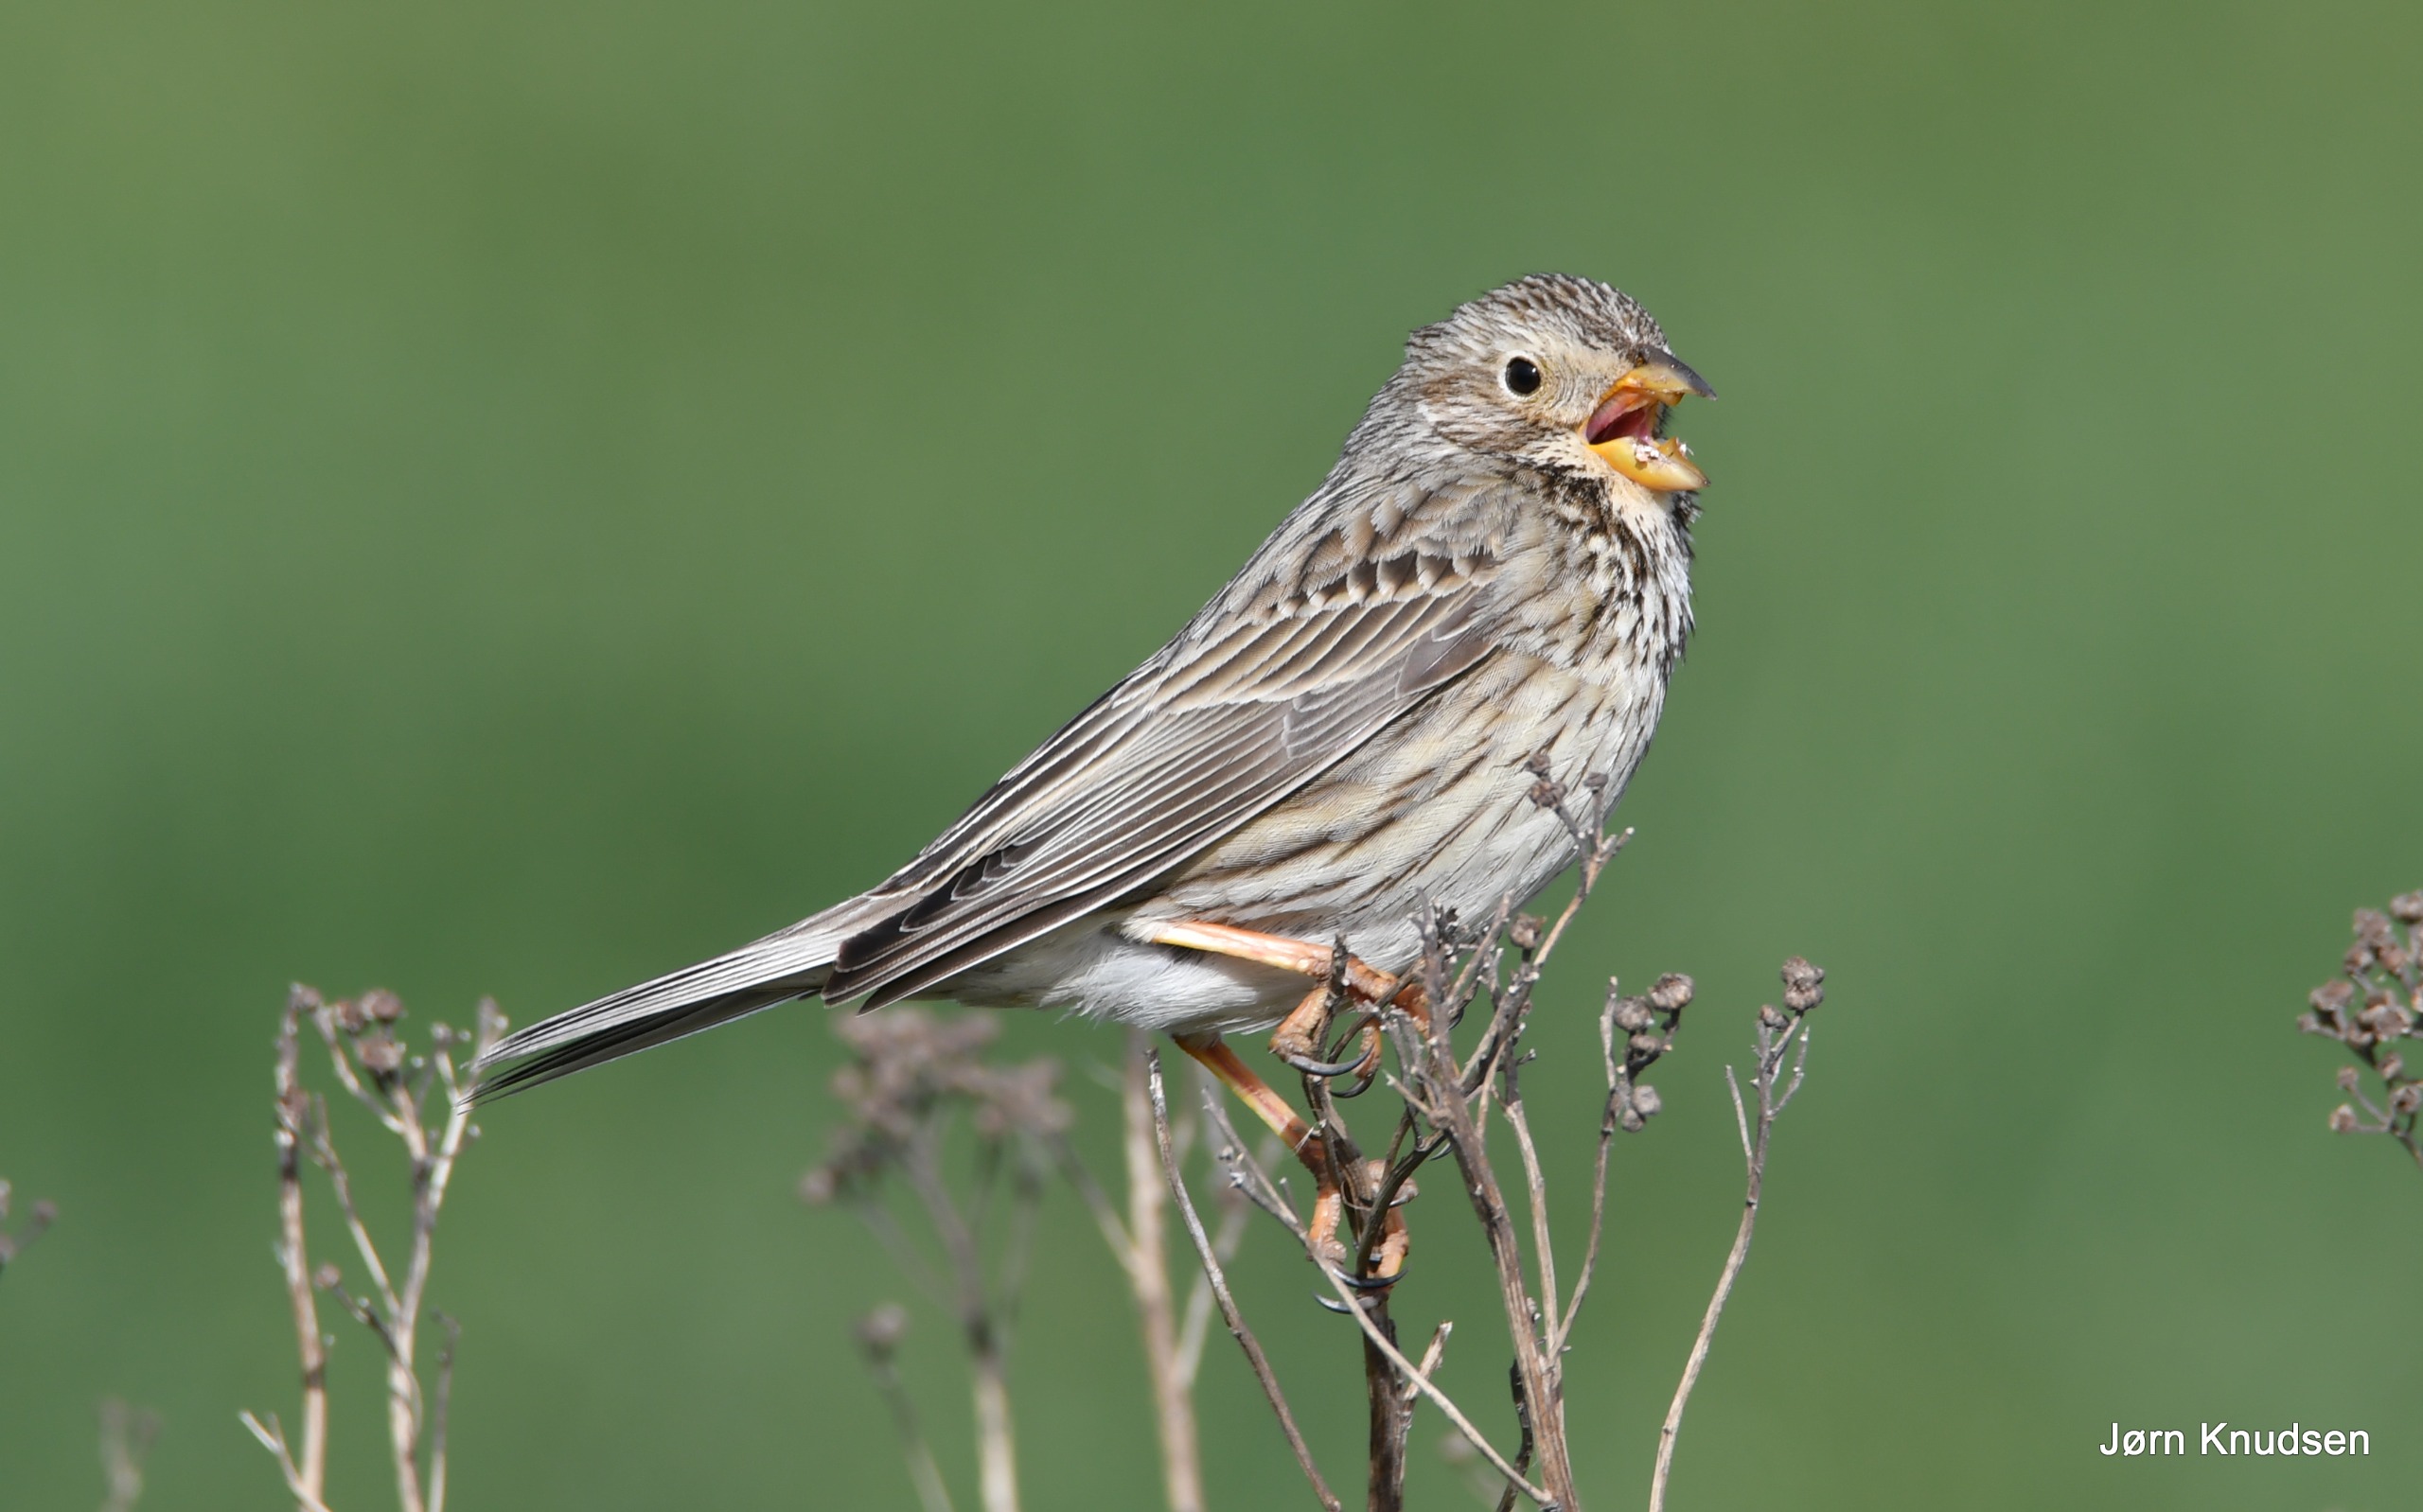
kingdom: Animalia
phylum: Chordata
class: Aves
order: Passeriformes
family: Emberizidae
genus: Emberiza
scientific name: Emberiza calandra
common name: Bomlærke
